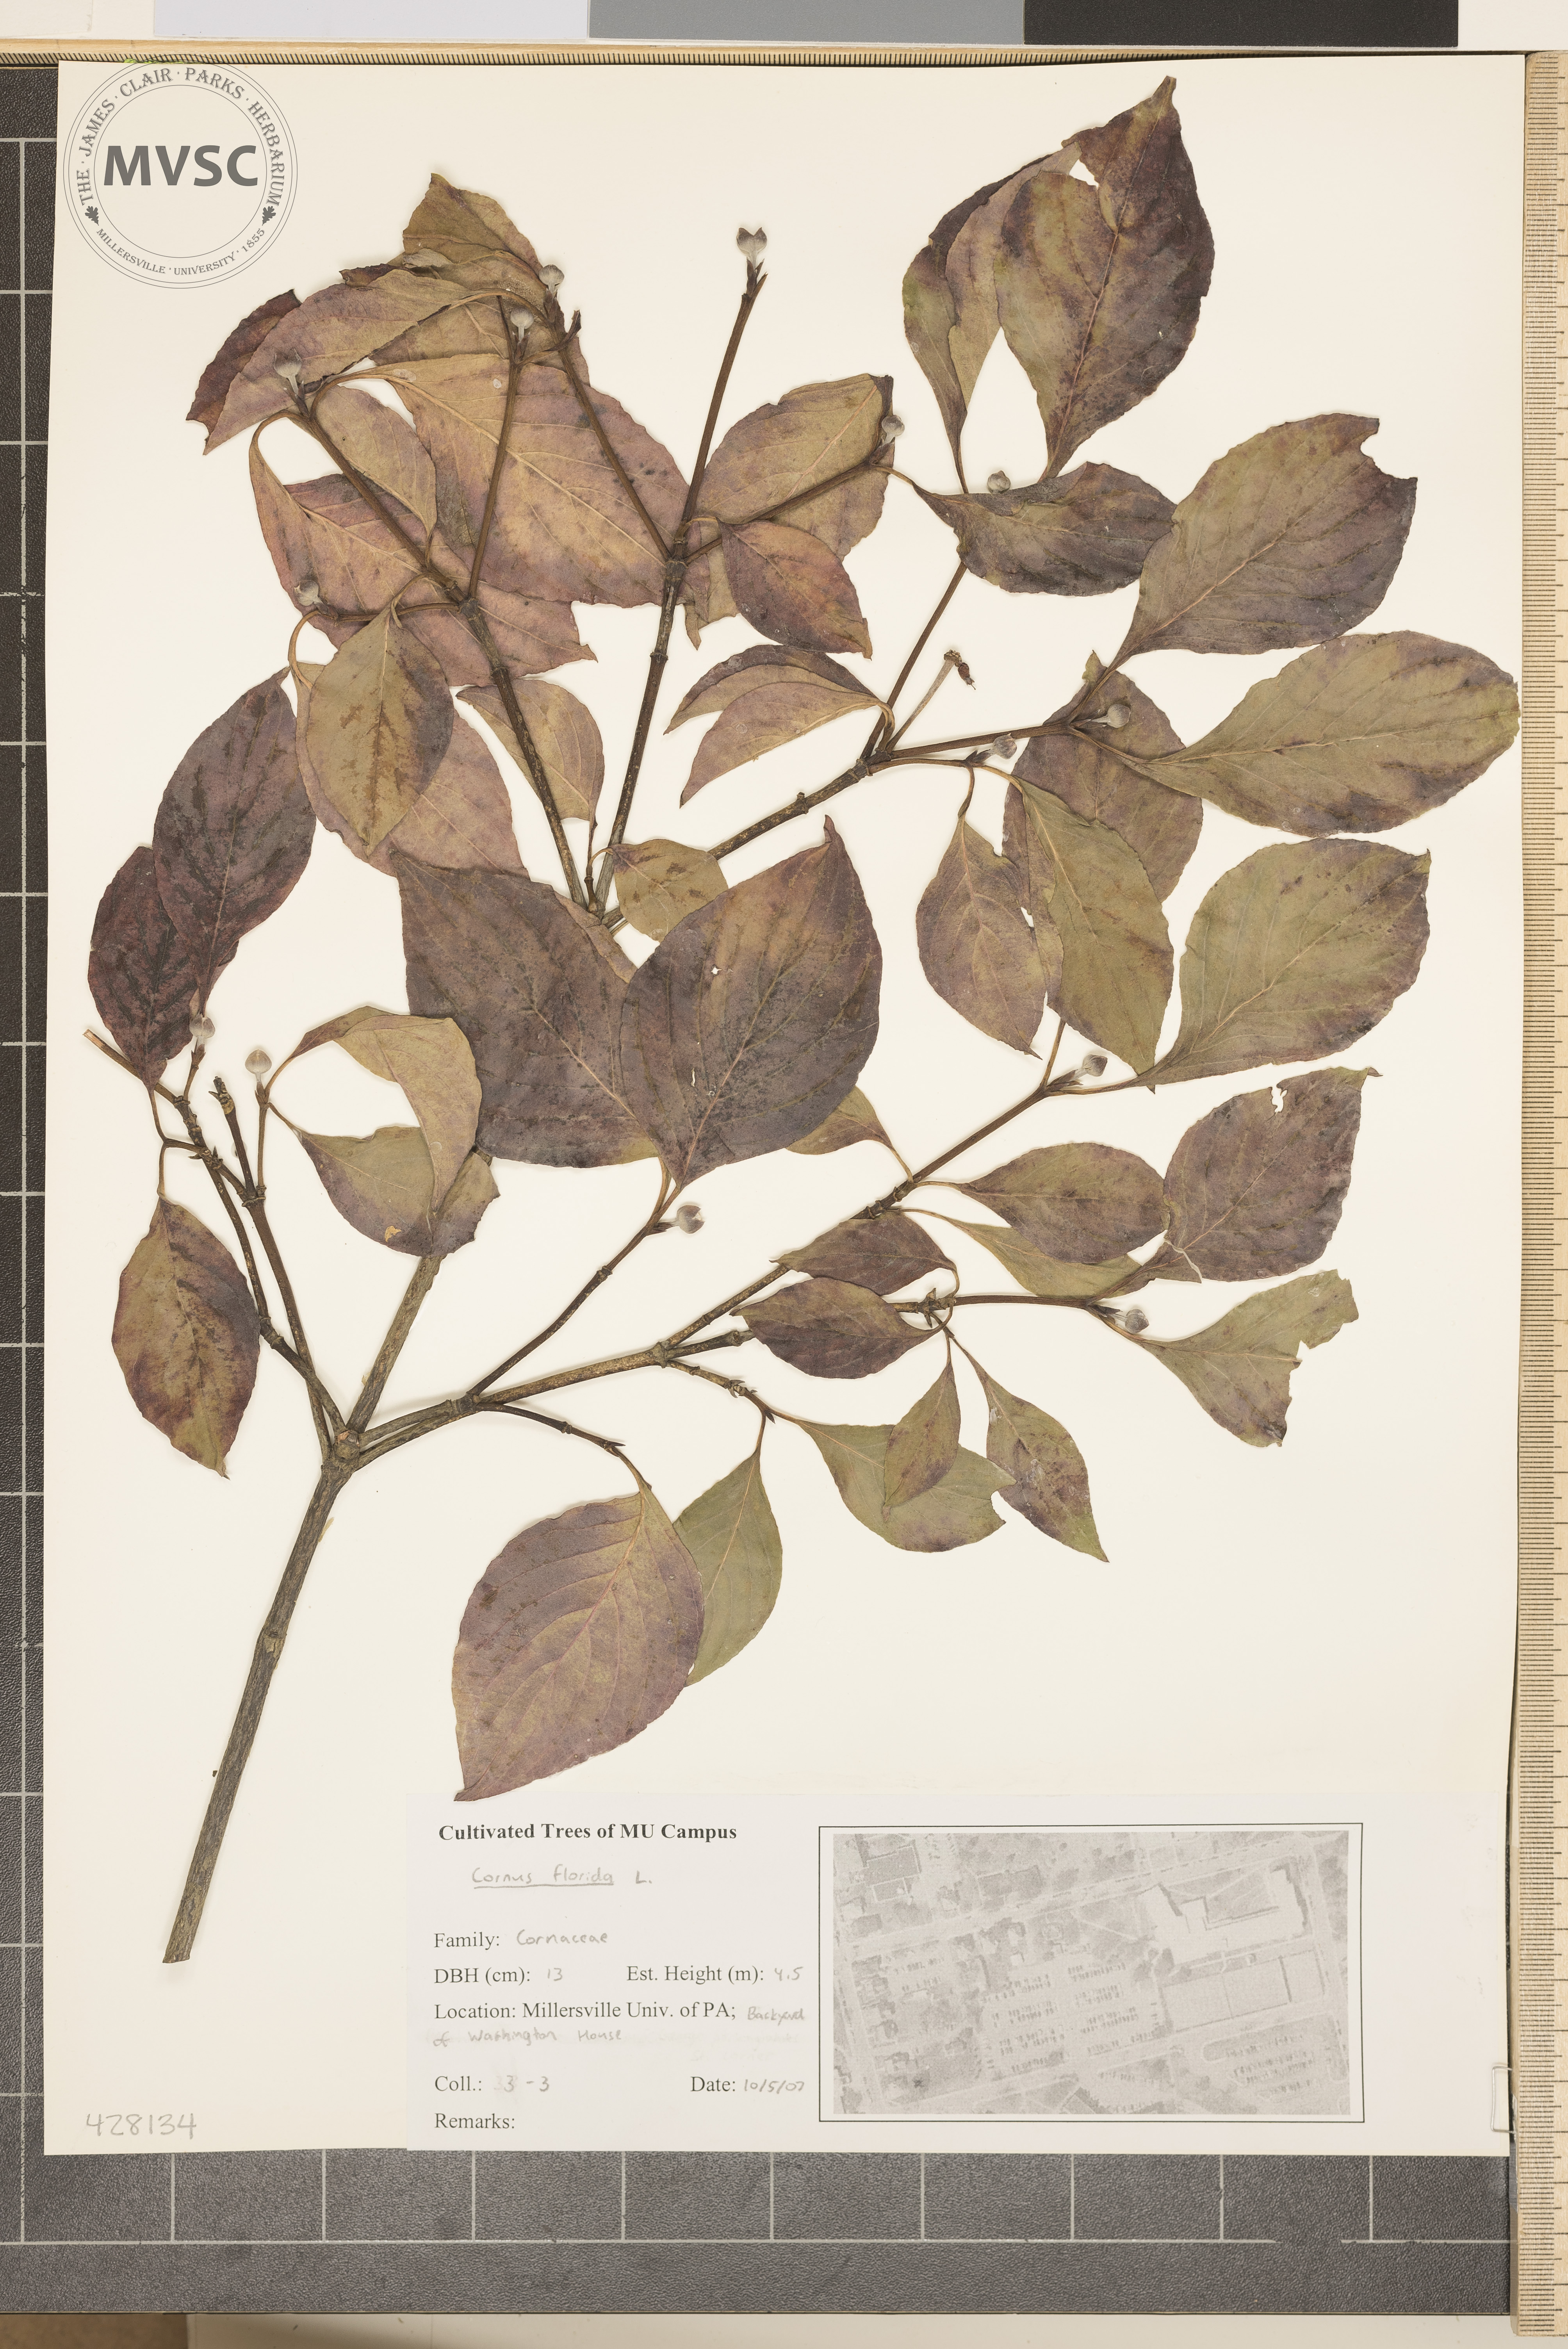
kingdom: Plantae
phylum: Tracheophyta
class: Magnoliopsida
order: Cornales
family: Cornaceae
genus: Cornus
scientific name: Cornus florida
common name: Flowering Dogwood
